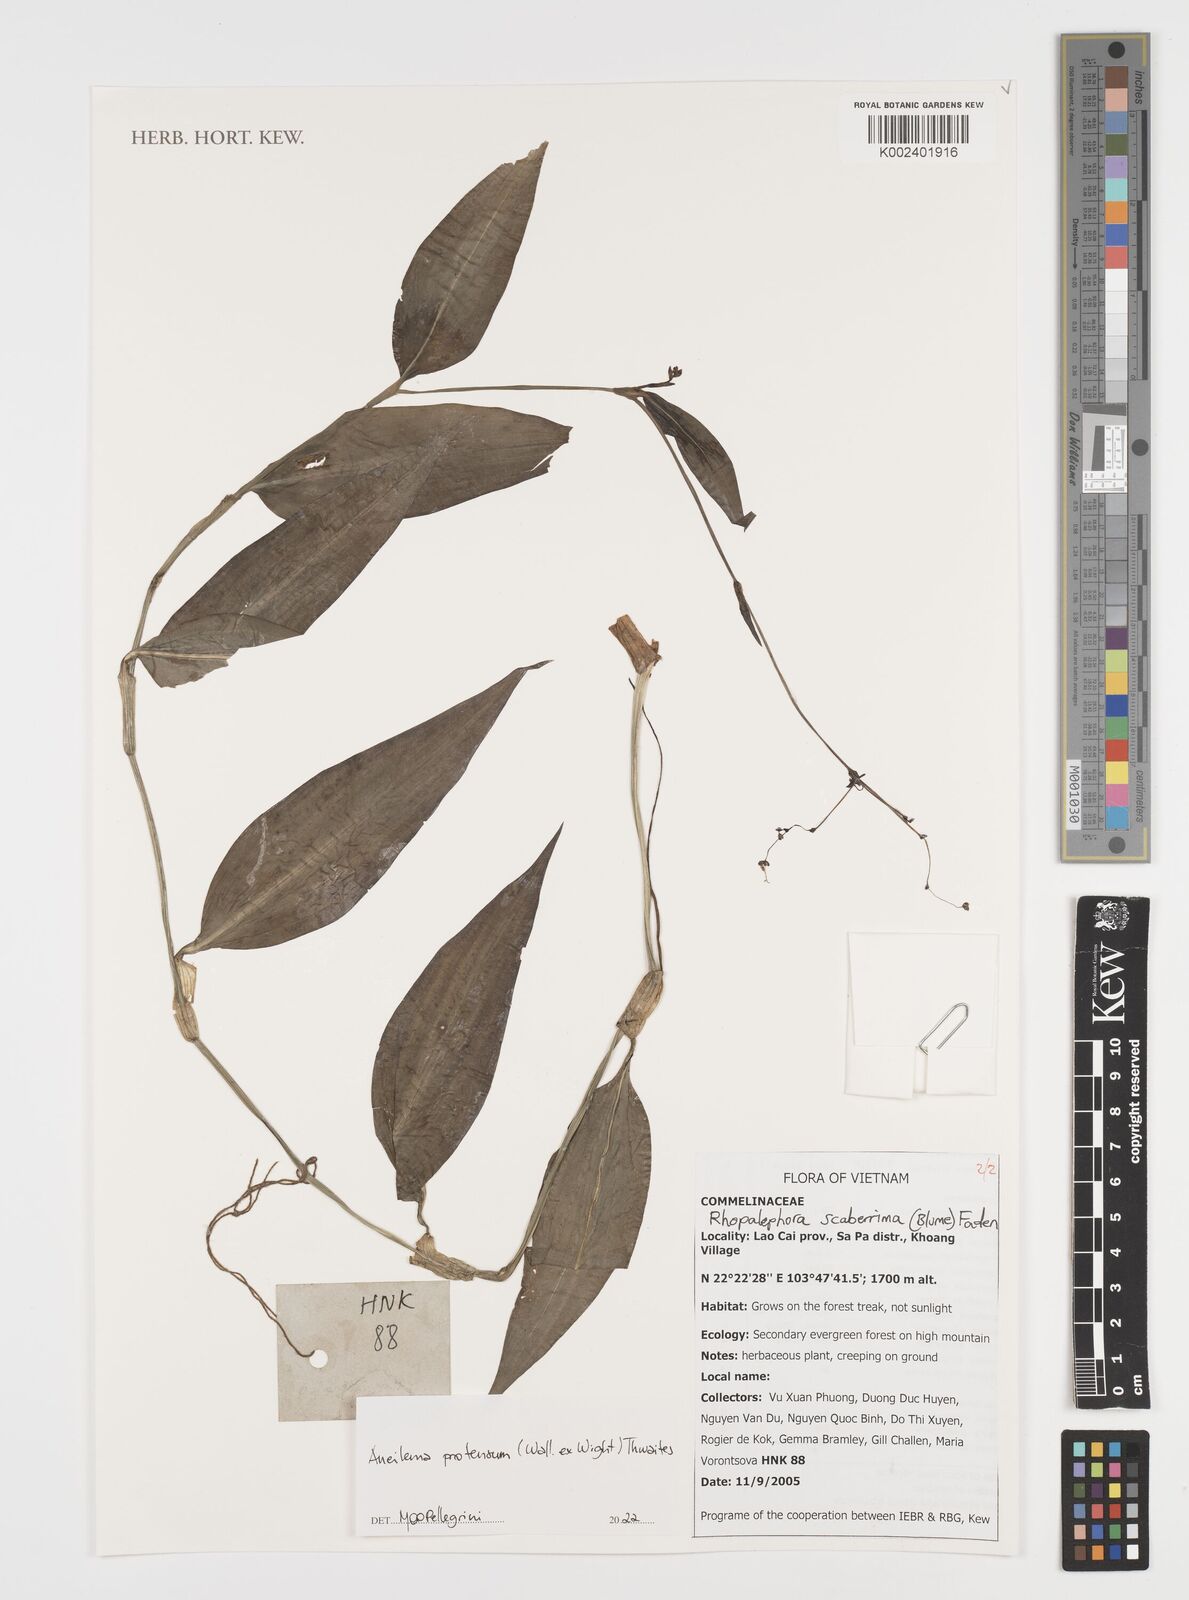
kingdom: Plantae
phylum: Tracheophyta
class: Liliopsida
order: Commelinales
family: Commelinaceae
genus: Rhopalephora
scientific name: Rhopalephora
